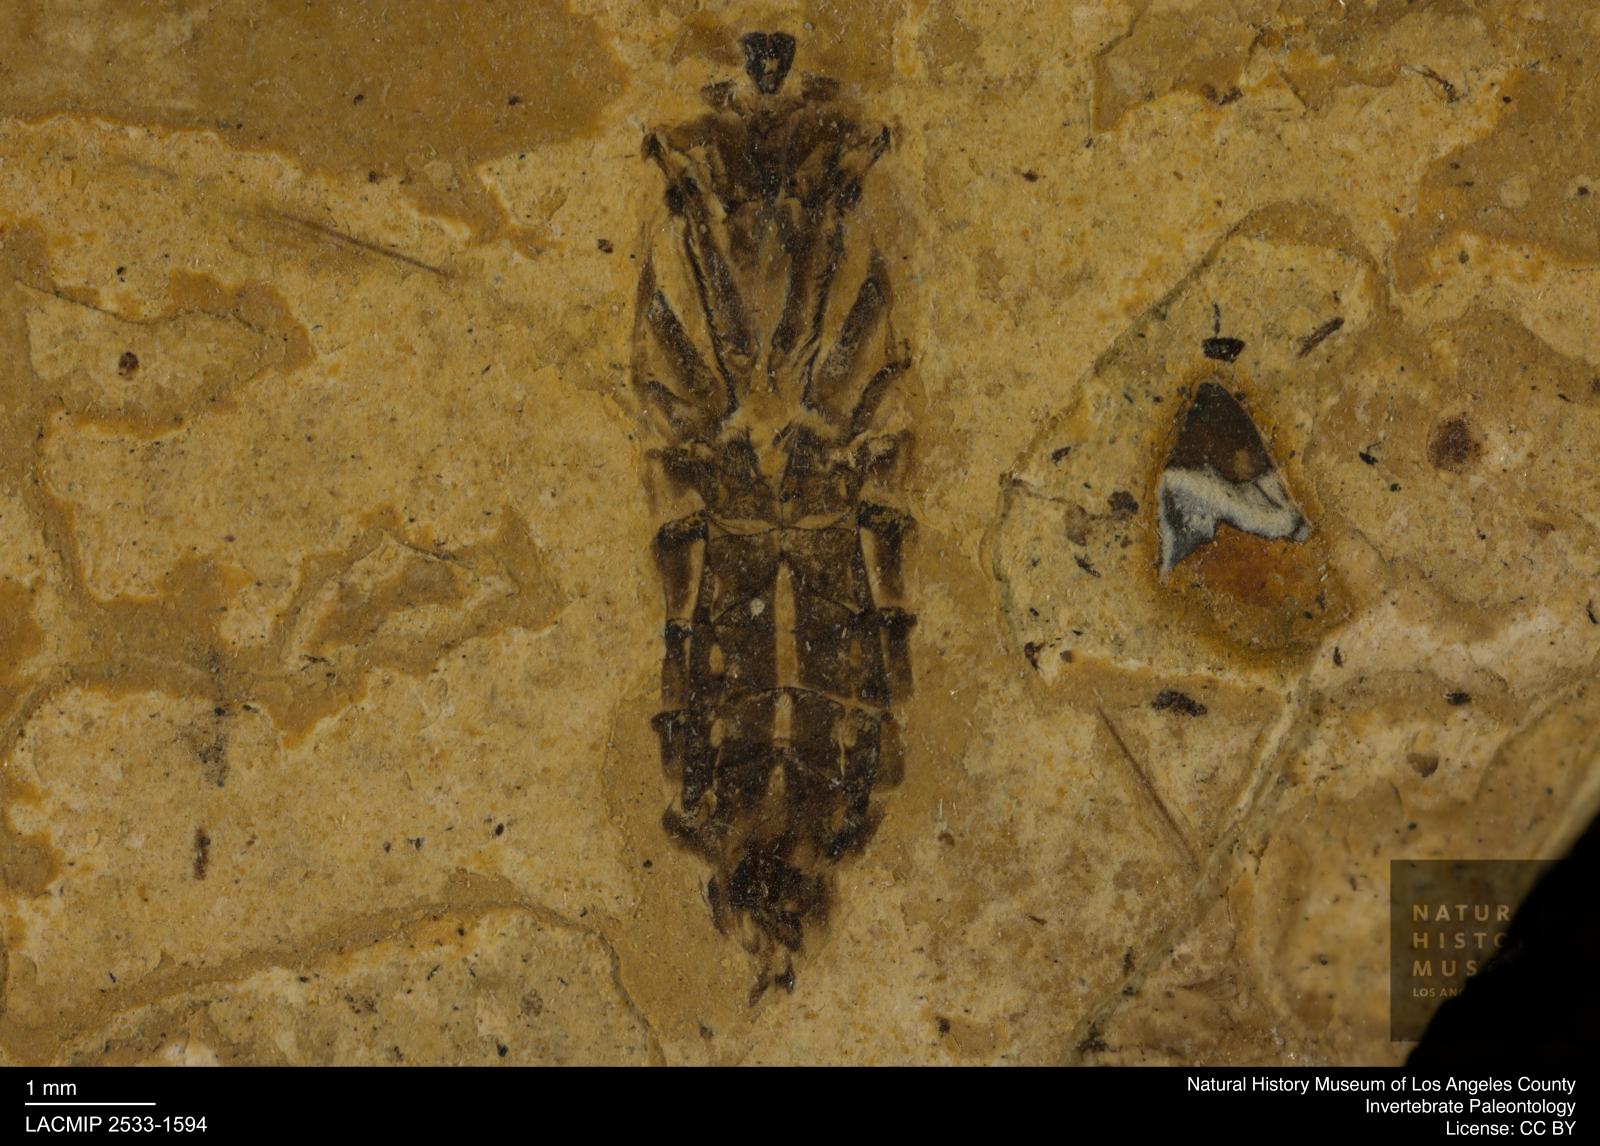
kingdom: Animalia
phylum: Arthropoda
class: Insecta
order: Hemiptera
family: Notonectidae
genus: Notonecta
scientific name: Notonecta
